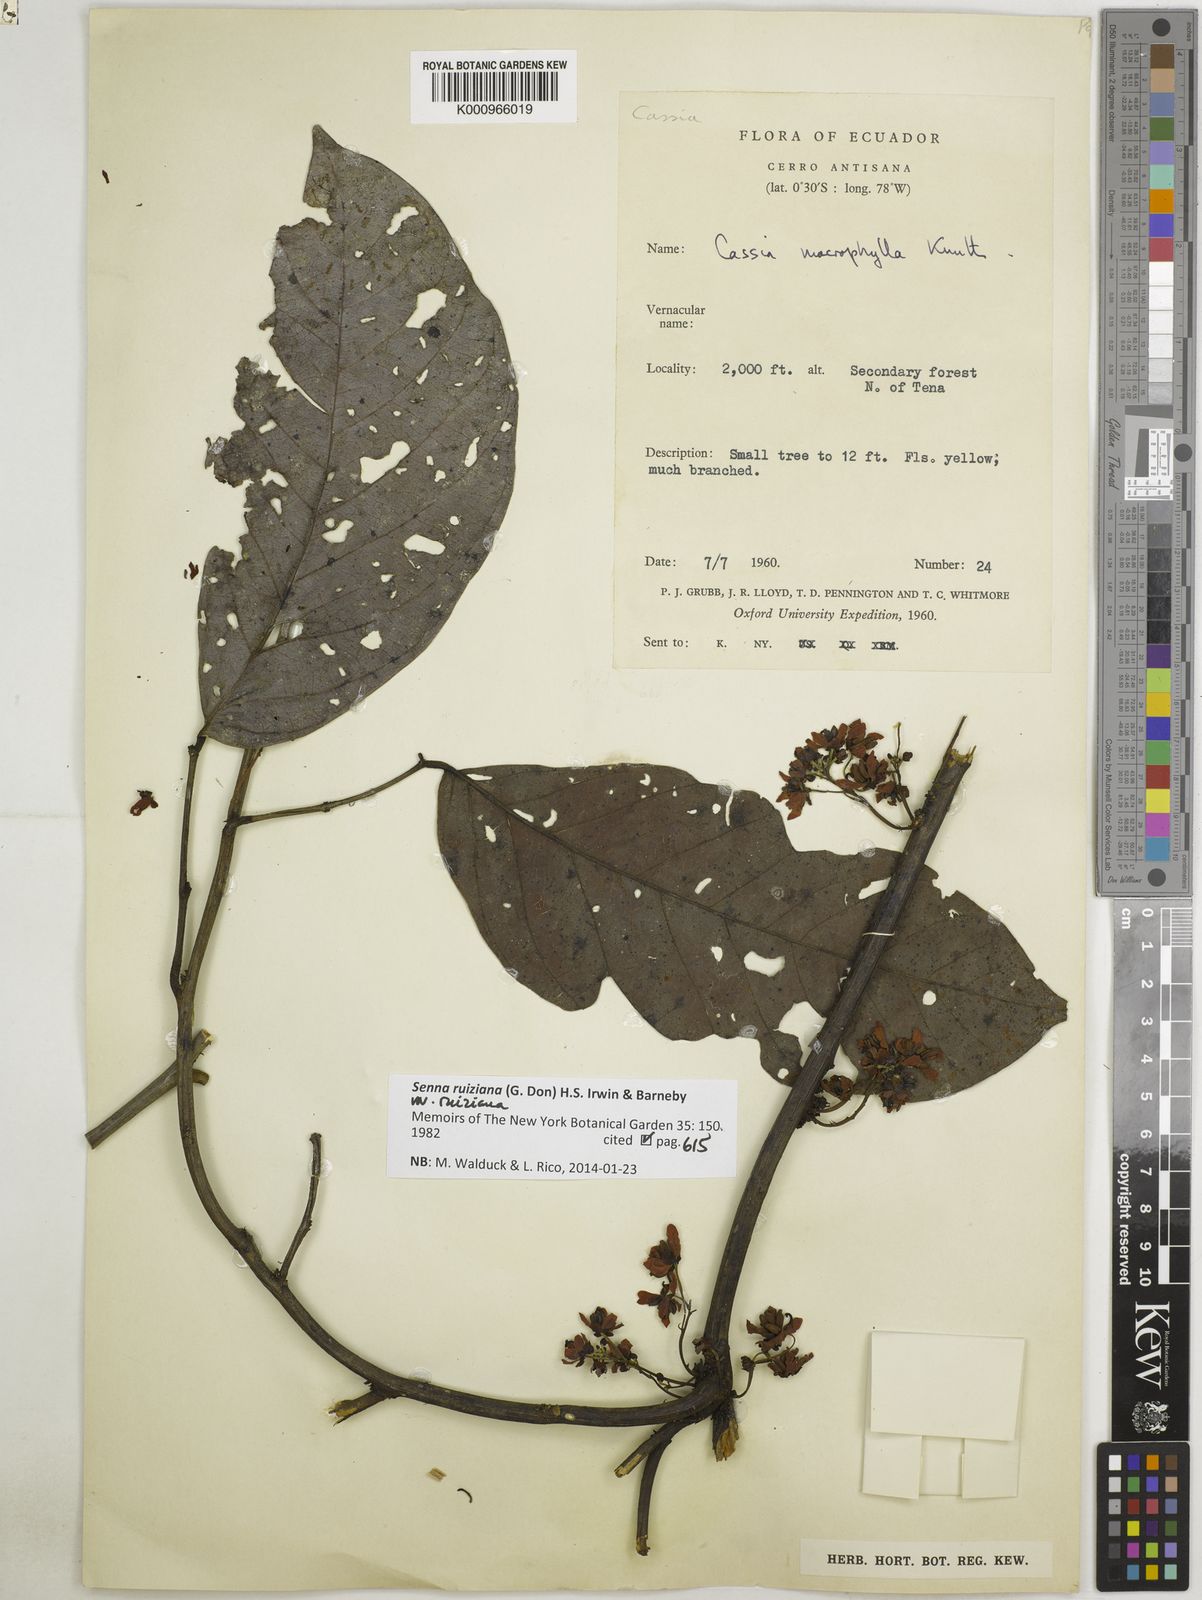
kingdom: Plantae
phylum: Tracheophyta
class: Magnoliopsida
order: Fabales
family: Fabaceae
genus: Senna
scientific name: Senna ruiziana
